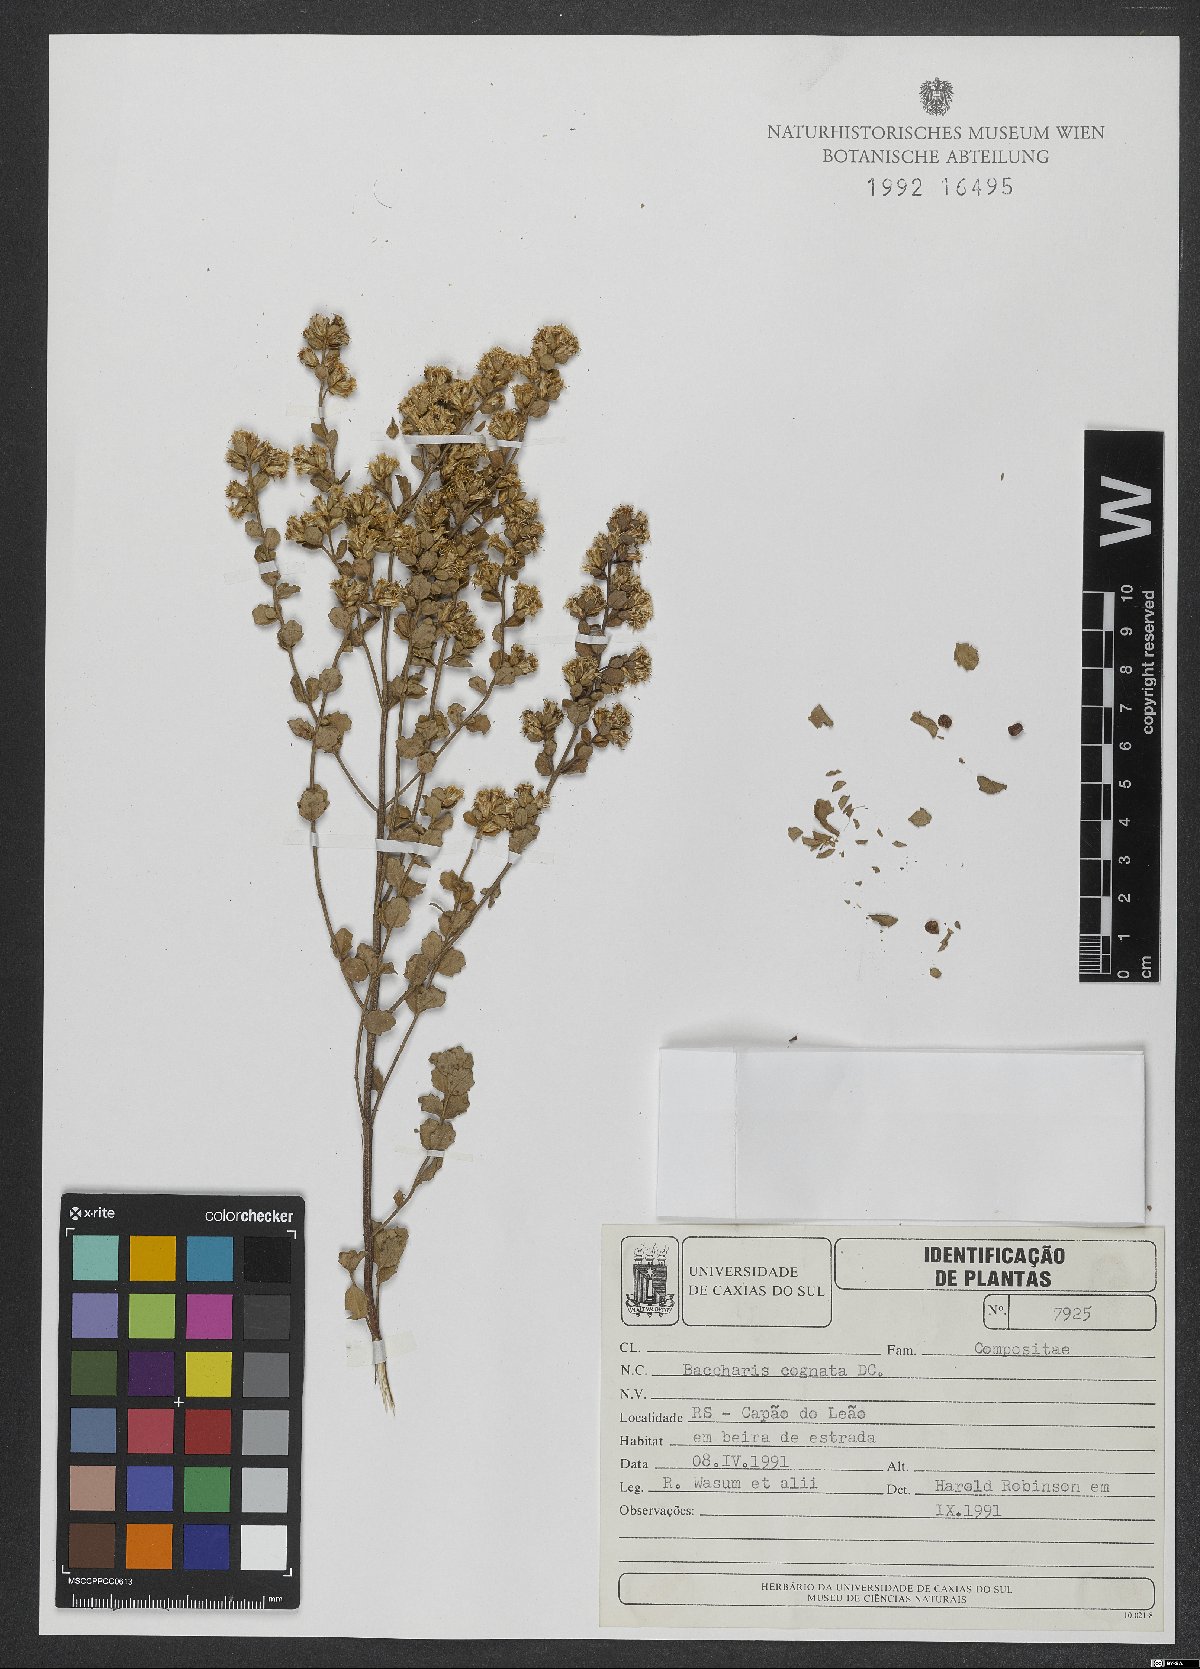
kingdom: Plantae
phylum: Tracheophyta
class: Magnoliopsida
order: Asterales
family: Asteraceae
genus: Baccharis
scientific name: Baccharis cognata
